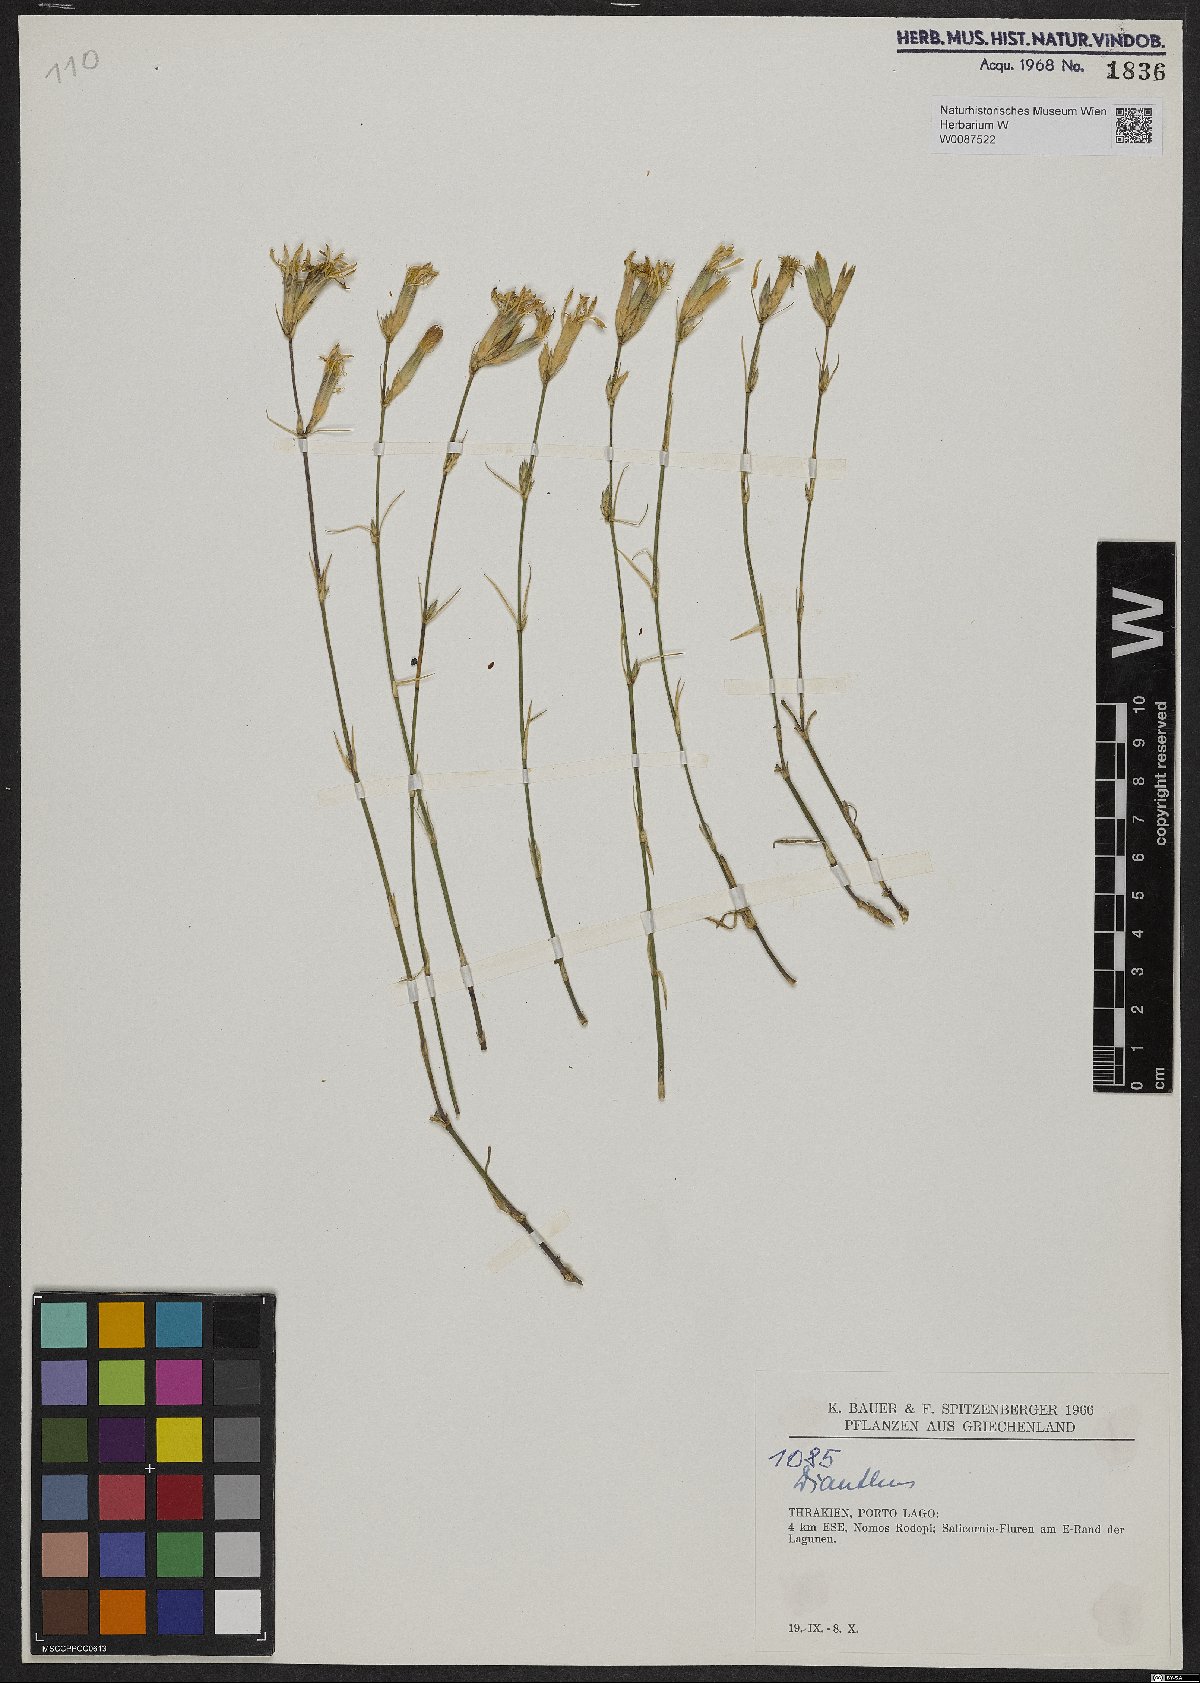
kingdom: Plantae
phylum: Tracheophyta
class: Magnoliopsida
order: Caryophyllales
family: Caryophyllaceae
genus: Dianthus
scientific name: Dianthus
